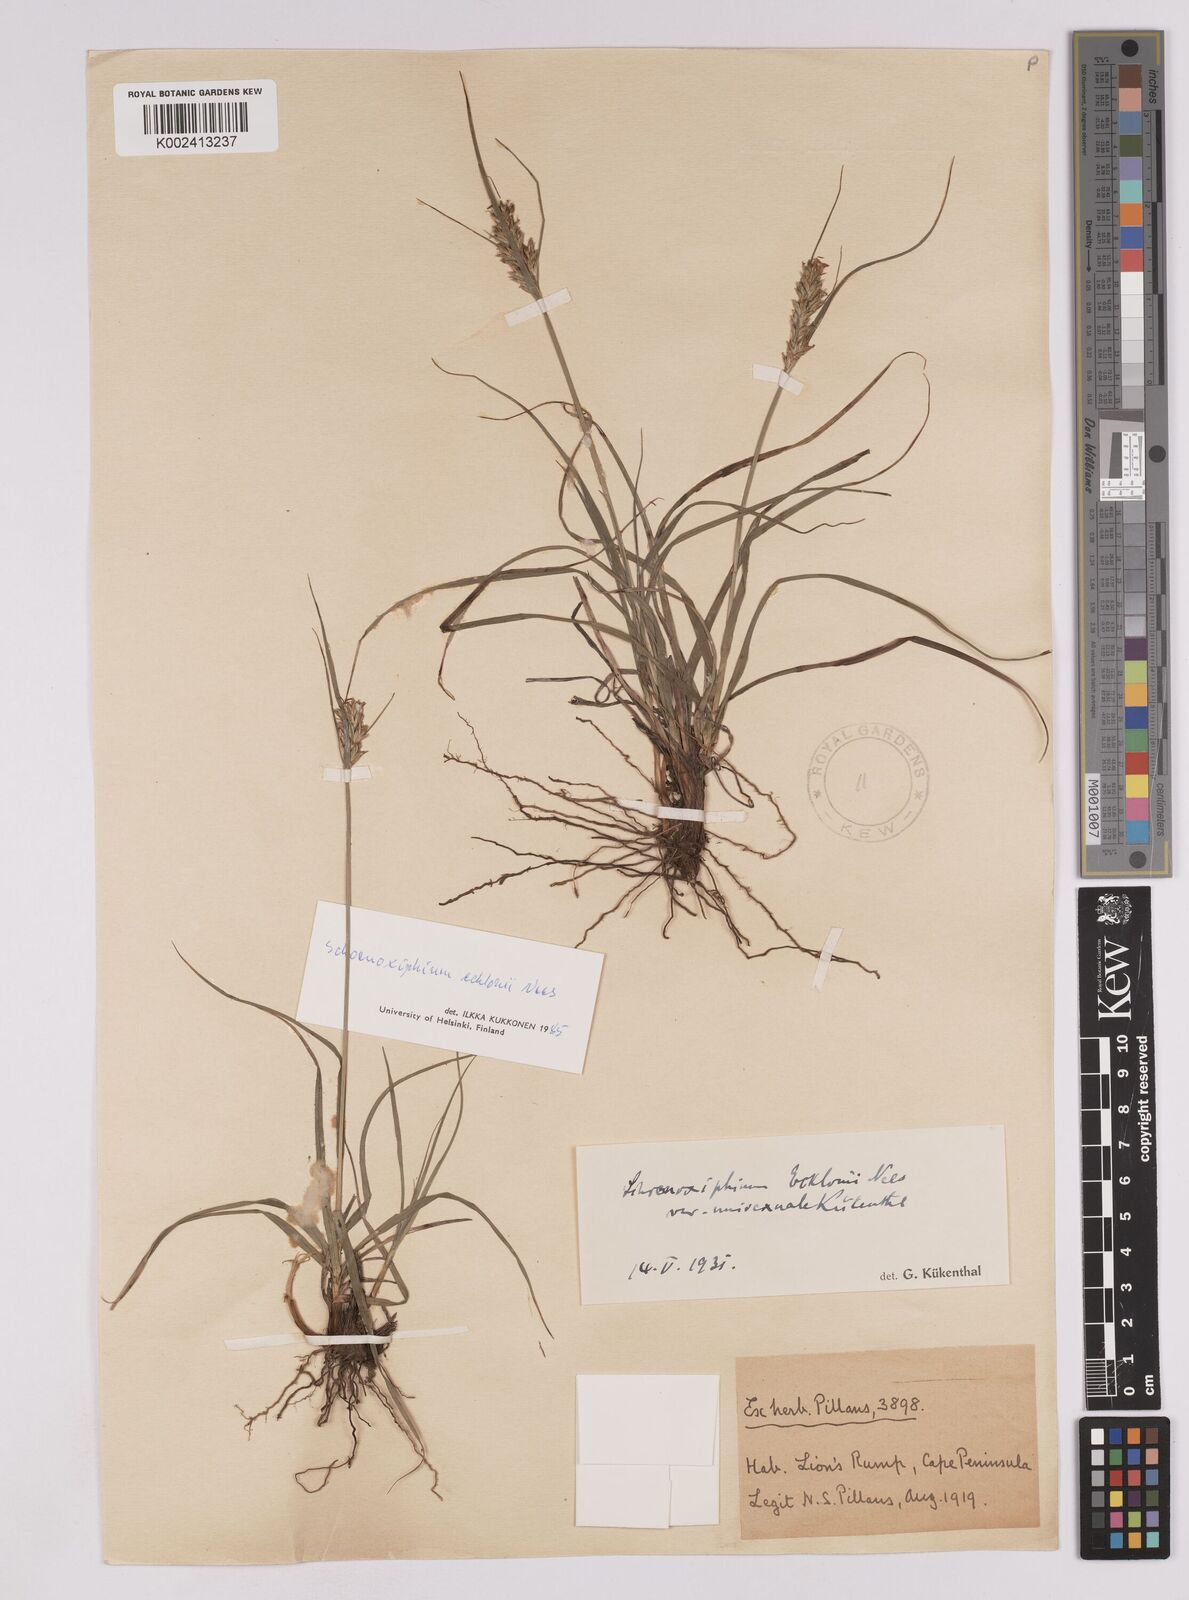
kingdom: Plantae
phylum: Tracheophyta
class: Liliopsida
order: Poales
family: Cyperaceae
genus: Carex
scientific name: Carex capensis
